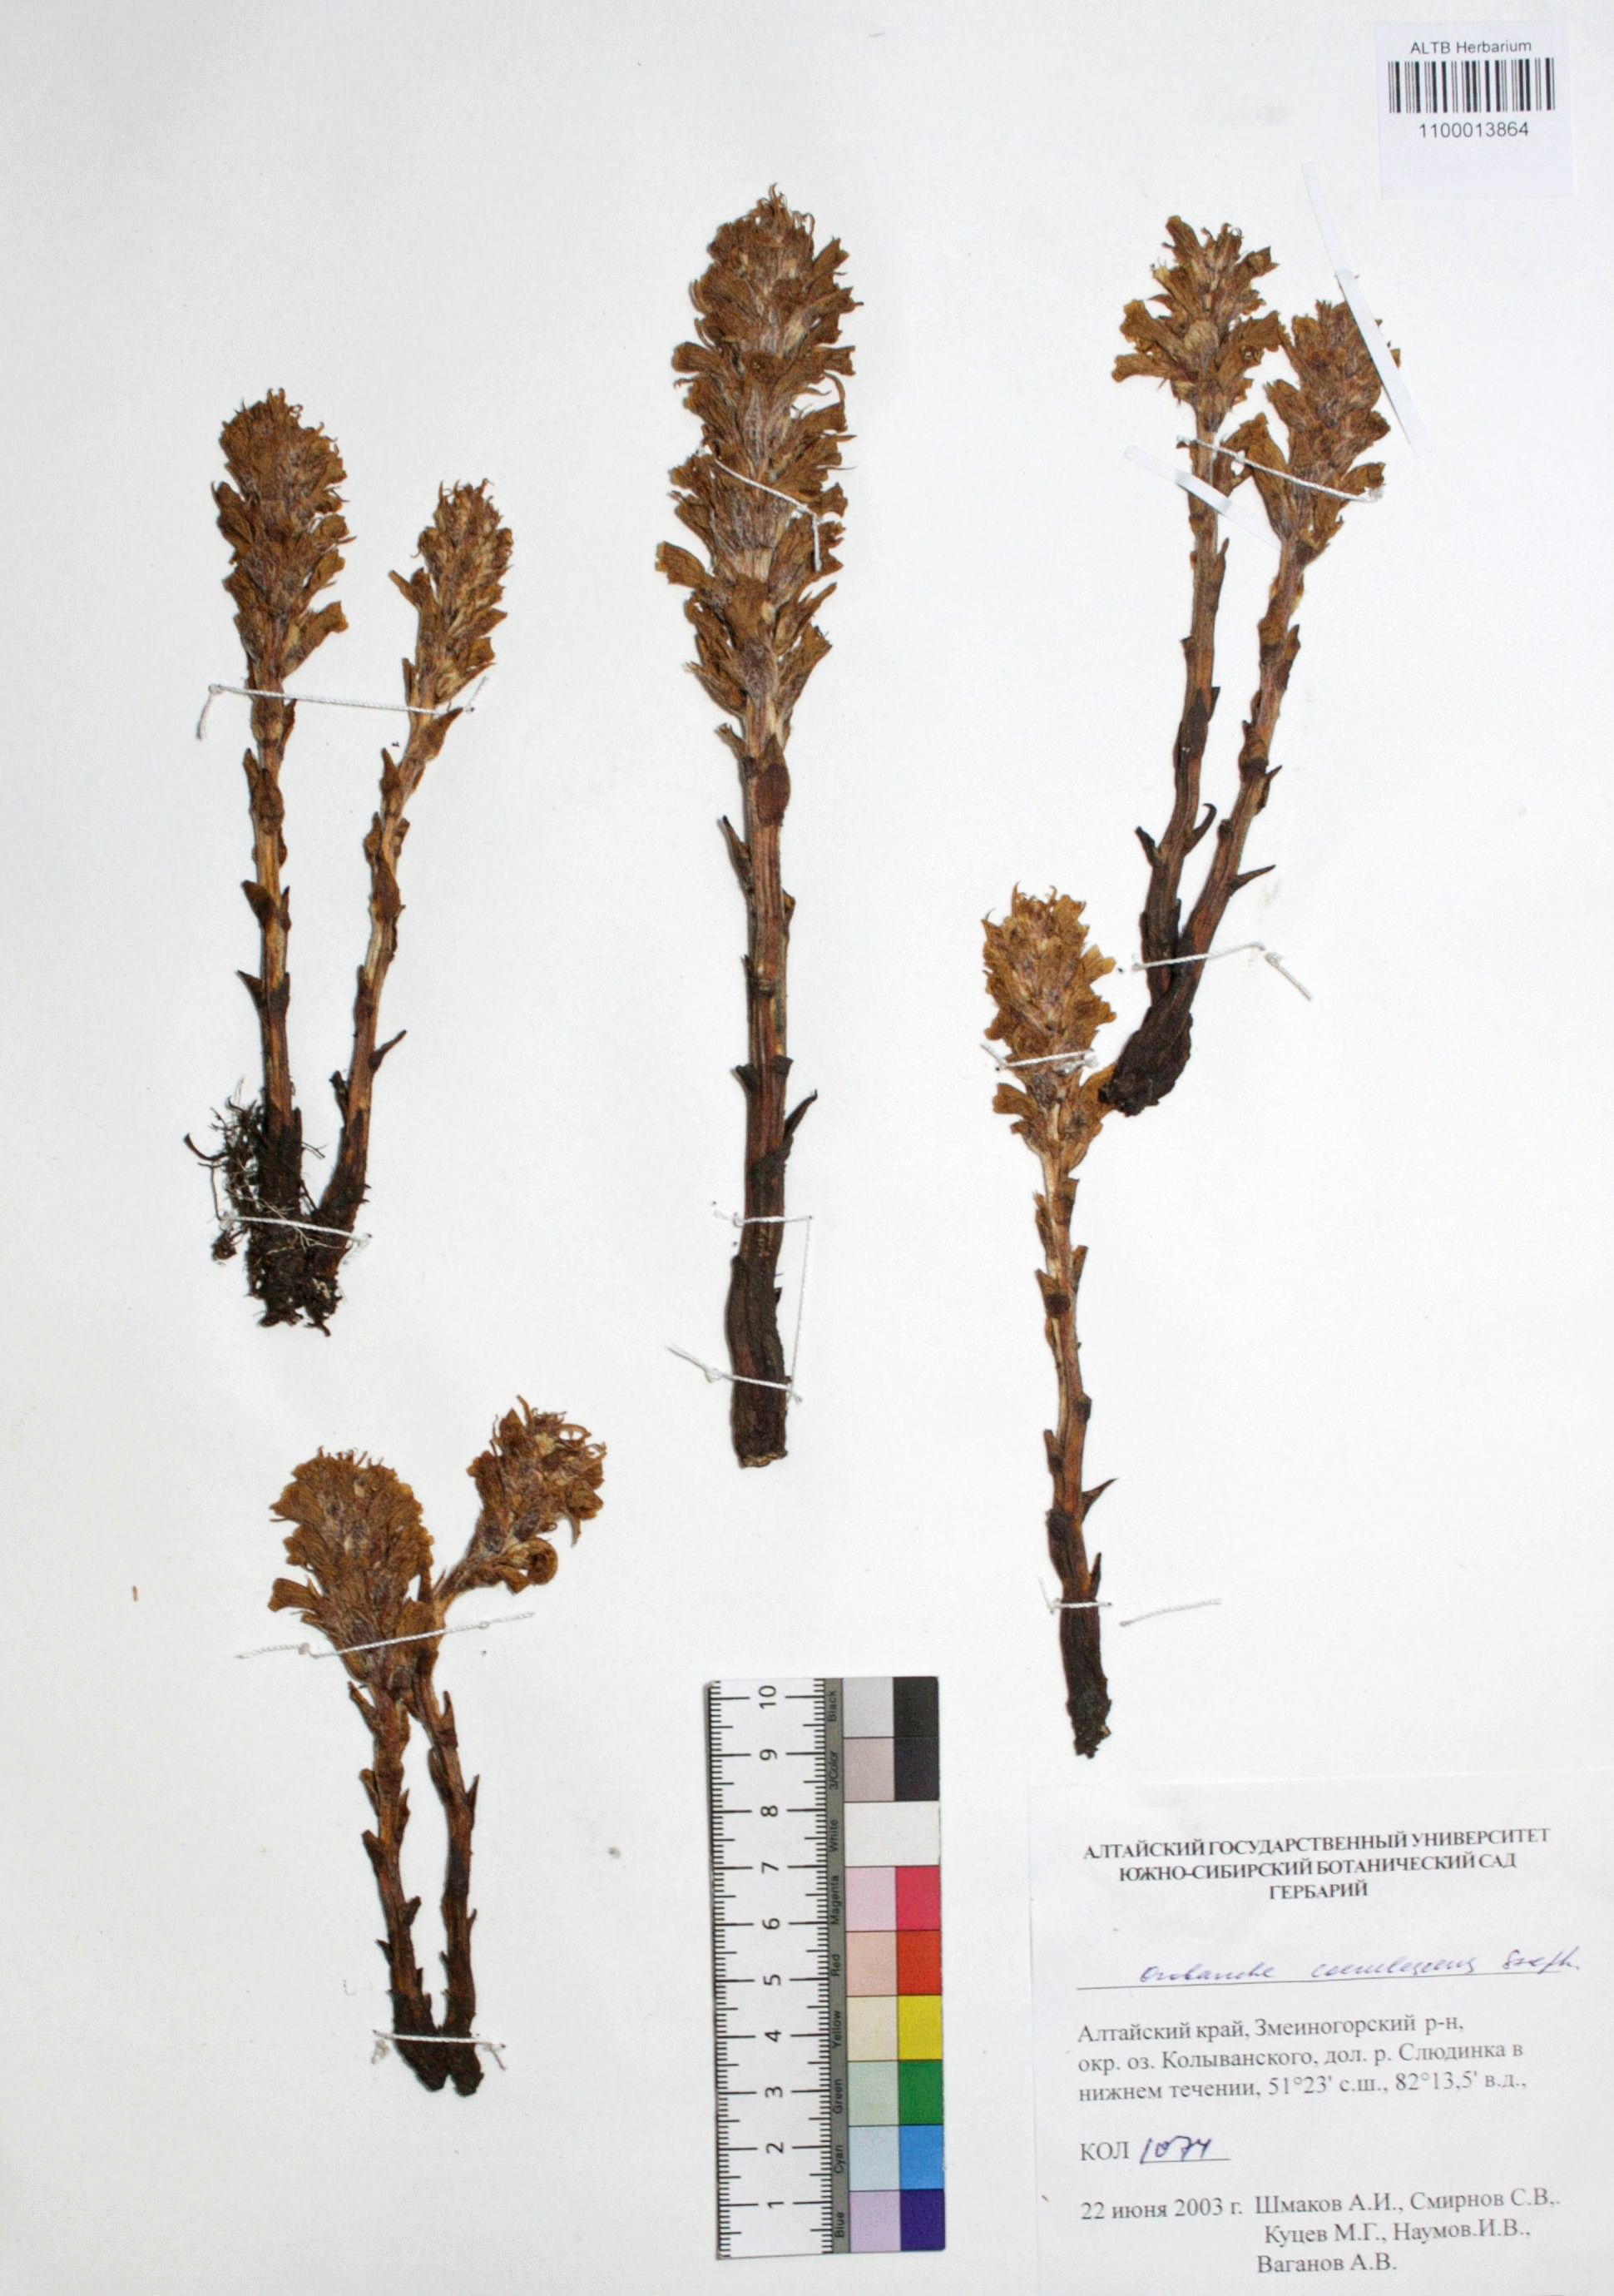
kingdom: Plantae
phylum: Tracheophyta
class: Magnoliopsida
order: Lamiales
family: Orobanchaceae
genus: Orobanche
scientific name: Orobanche coerulescens
